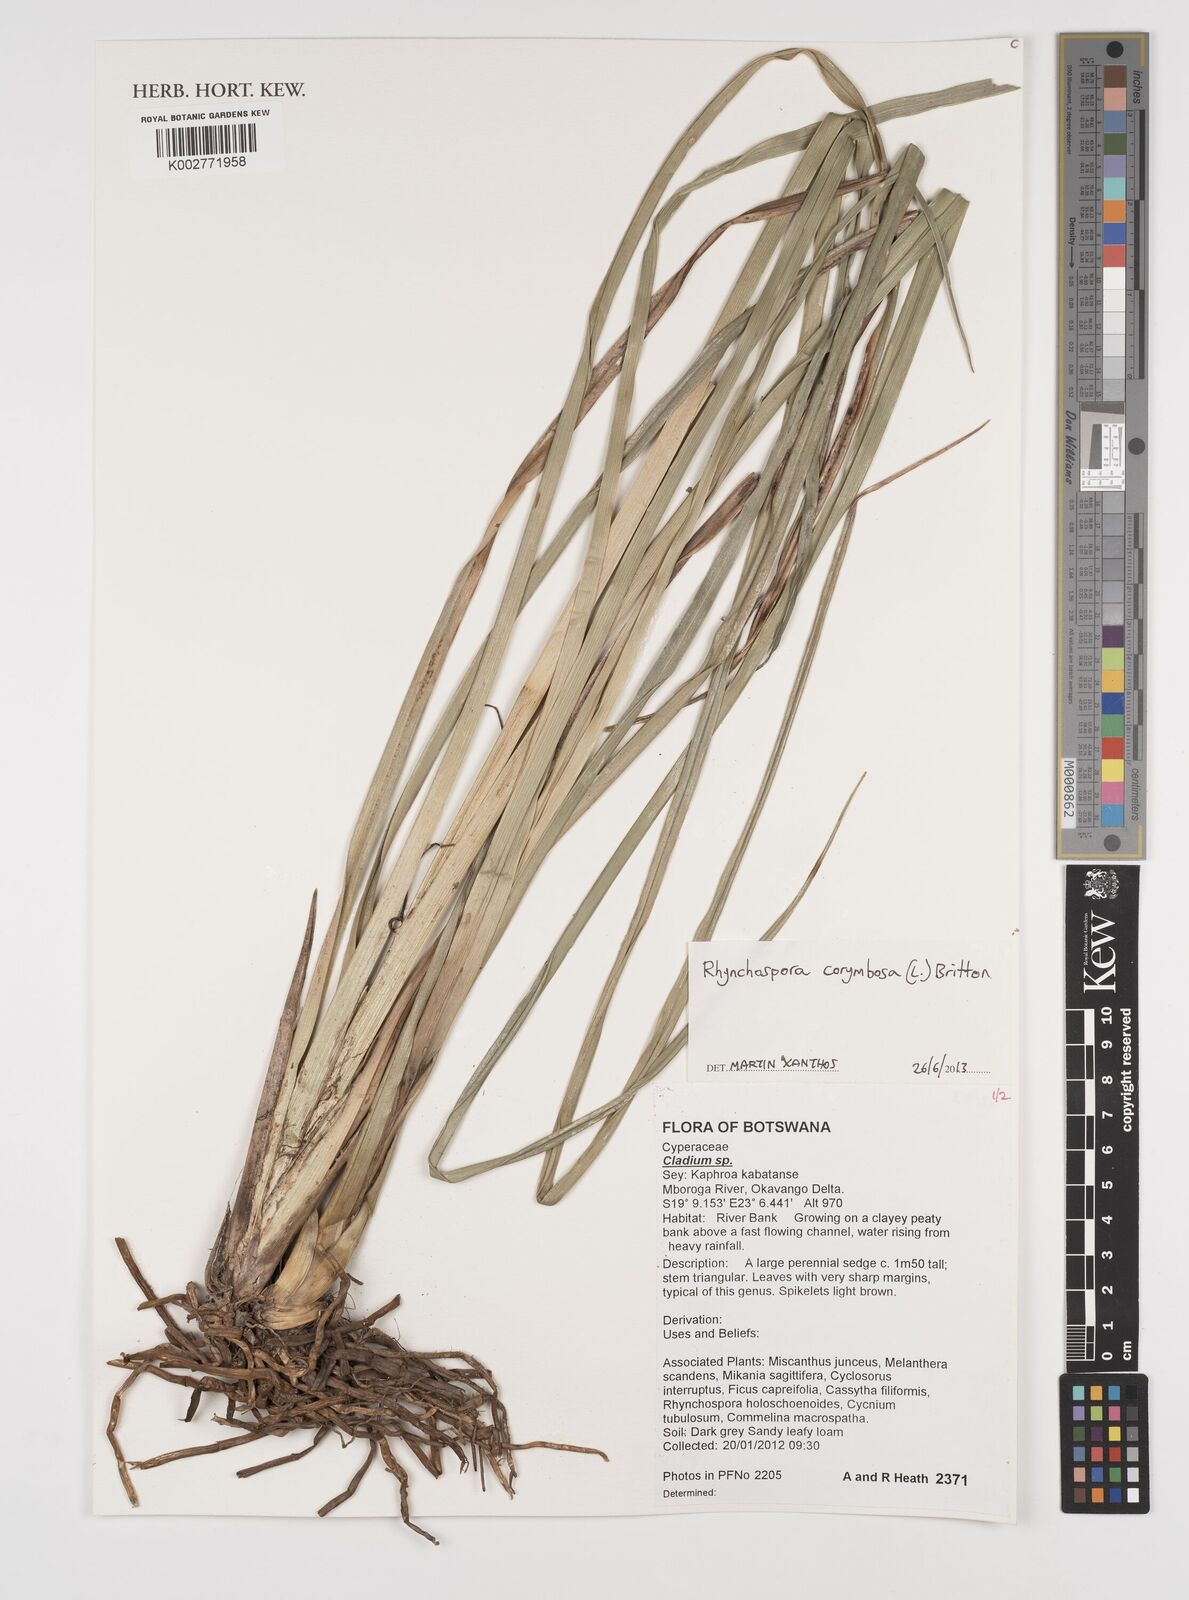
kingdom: Plantae
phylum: Tracheophyta
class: Liliopsida
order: Poales
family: Cyperaceae
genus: Rhynchospora
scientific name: Rhynchospora corymbosa
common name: Golden beak sedge
